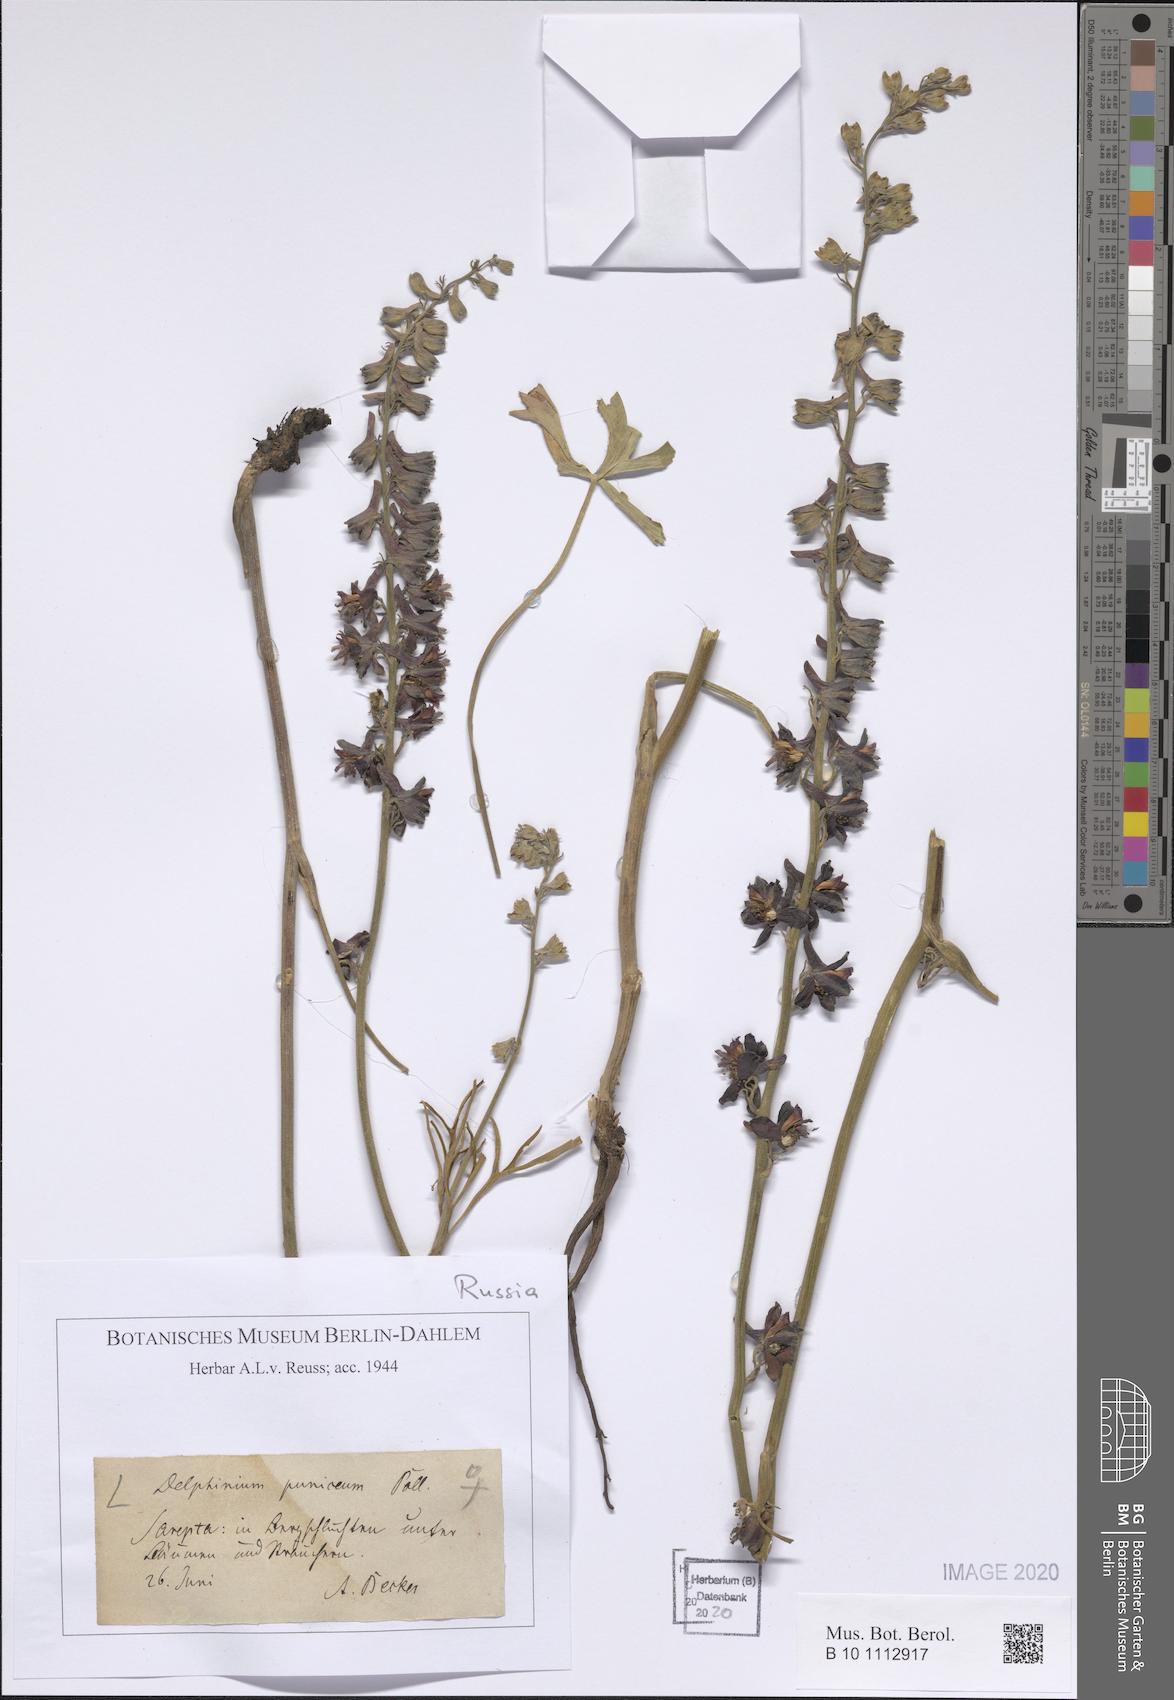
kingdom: Plantae
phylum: Tracheophyta
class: Magnoliopsida
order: Ranunculales
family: Ranunculaceae
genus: Delphinium
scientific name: Delphinium puniceum
